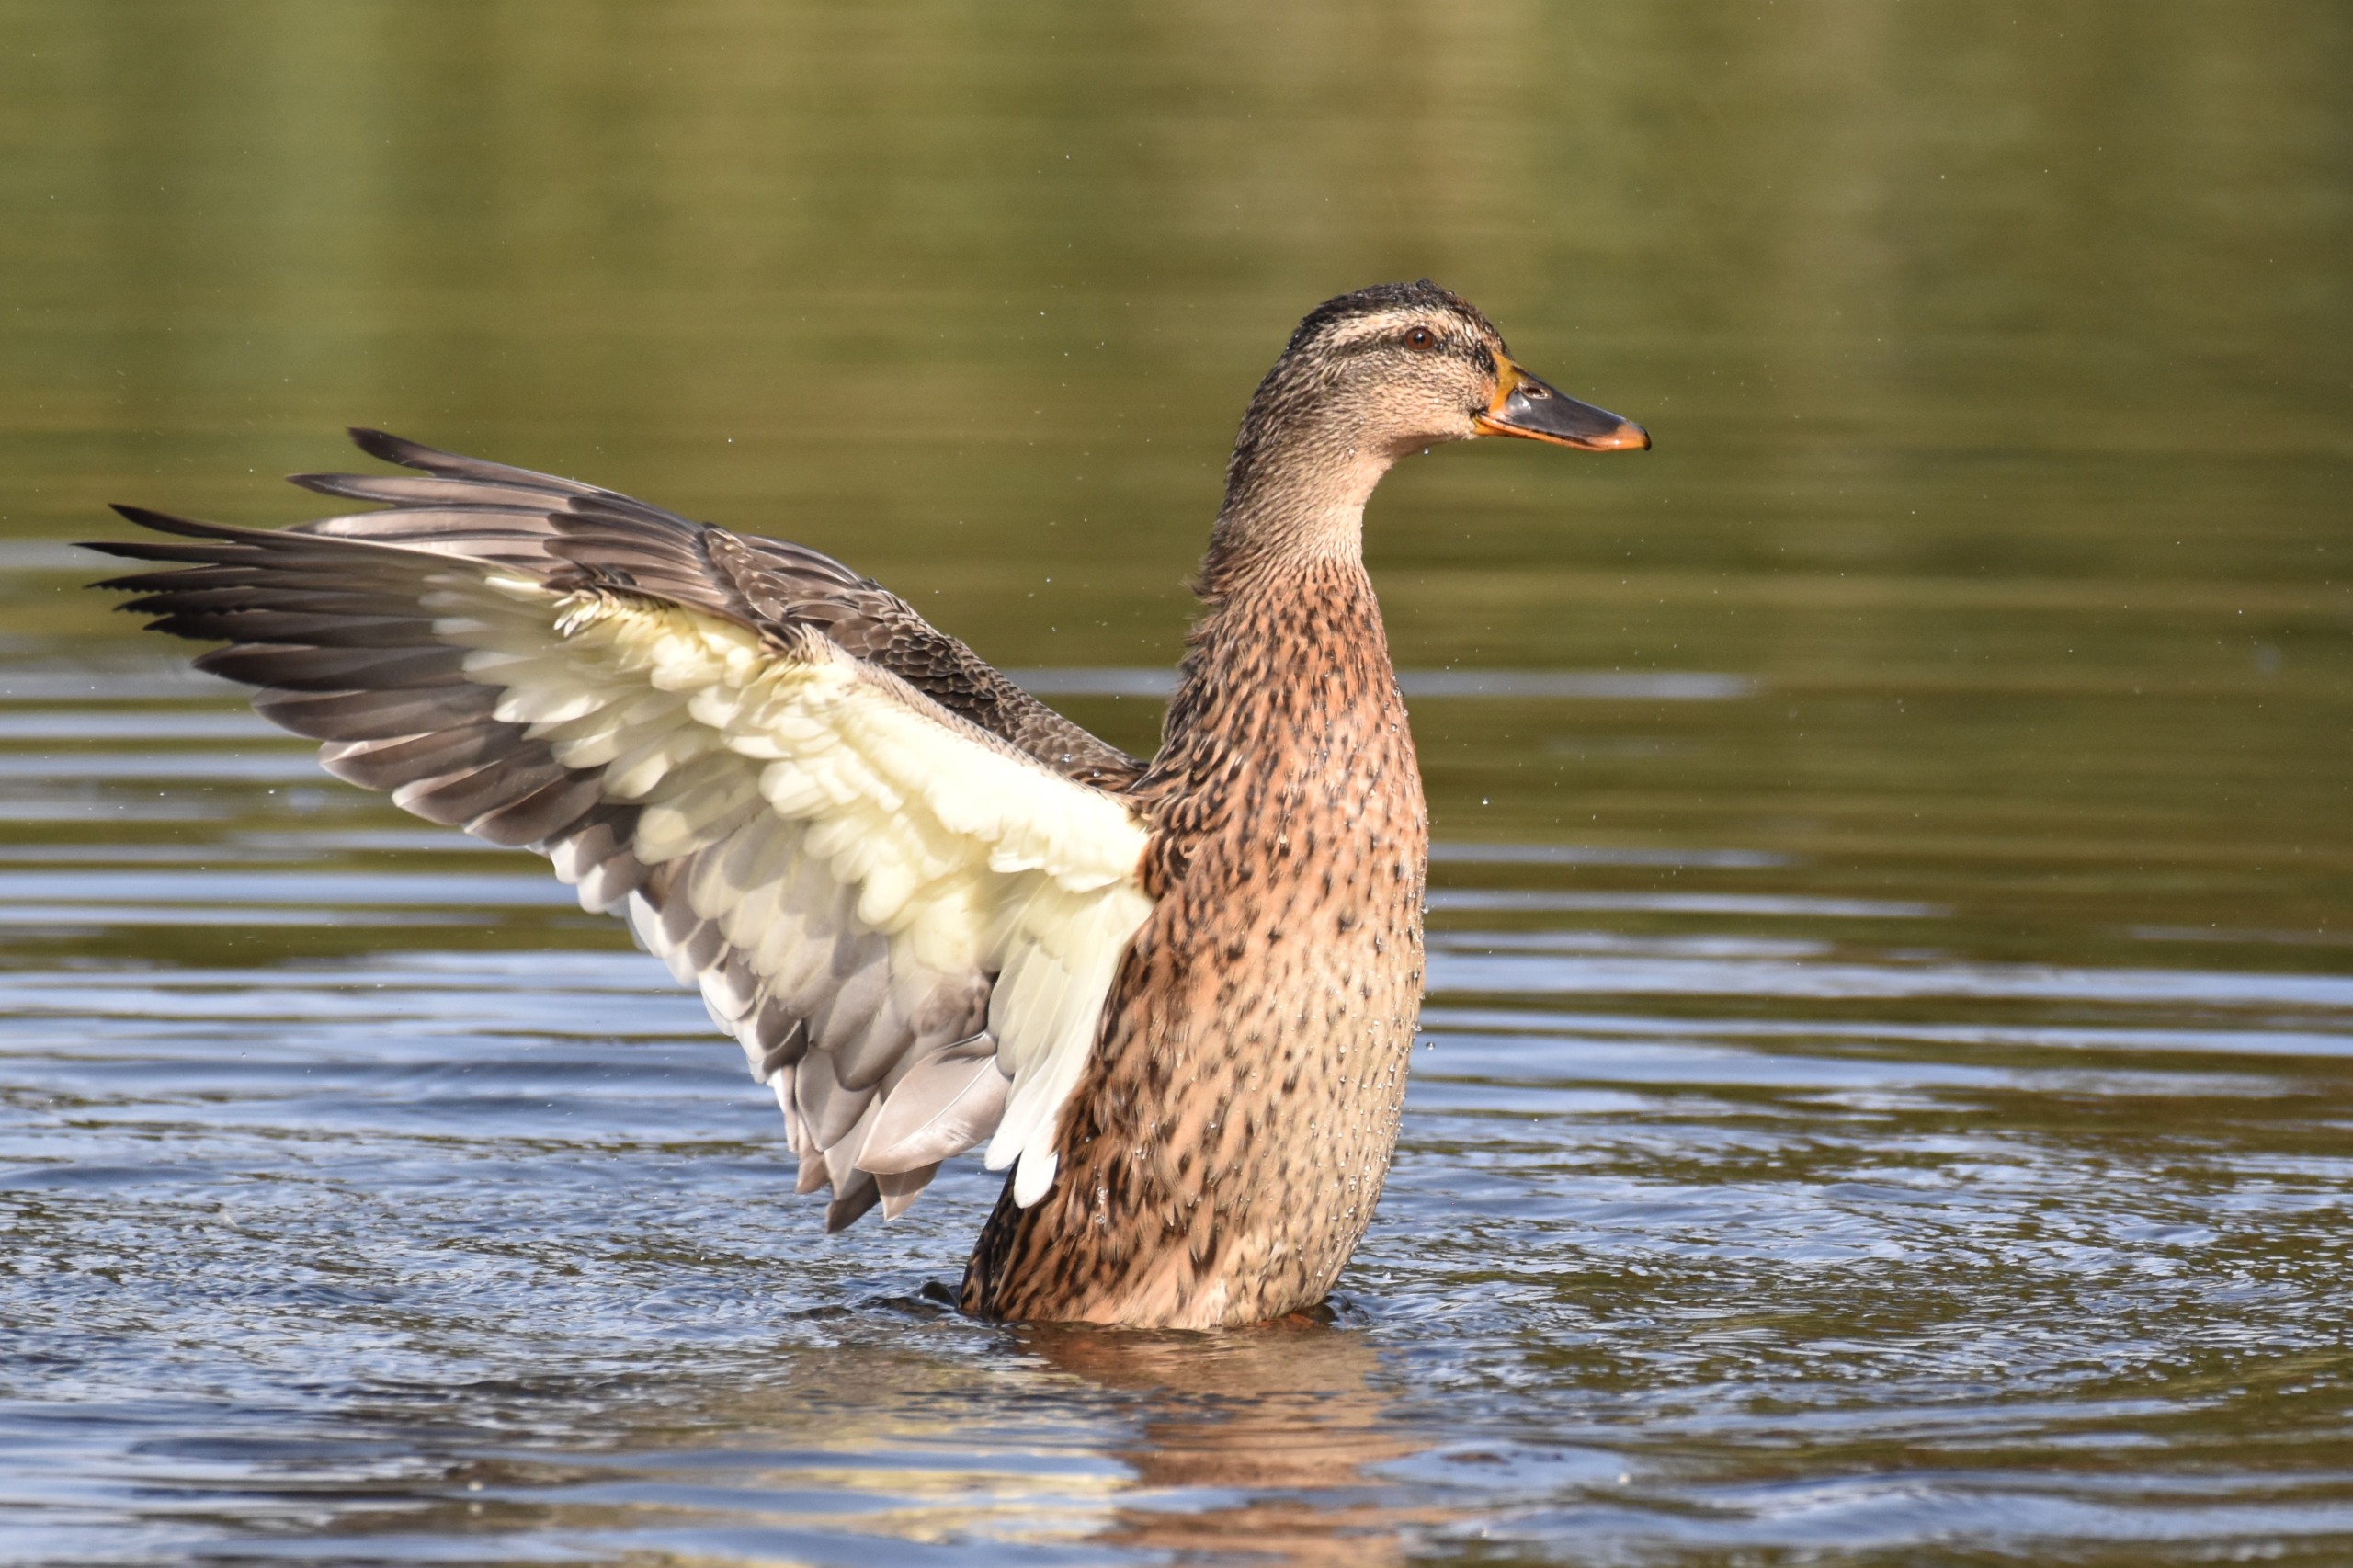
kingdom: Animalia
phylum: Chordata
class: Aves
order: Anseriformes
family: Anatidae
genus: Anas
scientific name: Anas platyrhynchos
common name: Gråand
